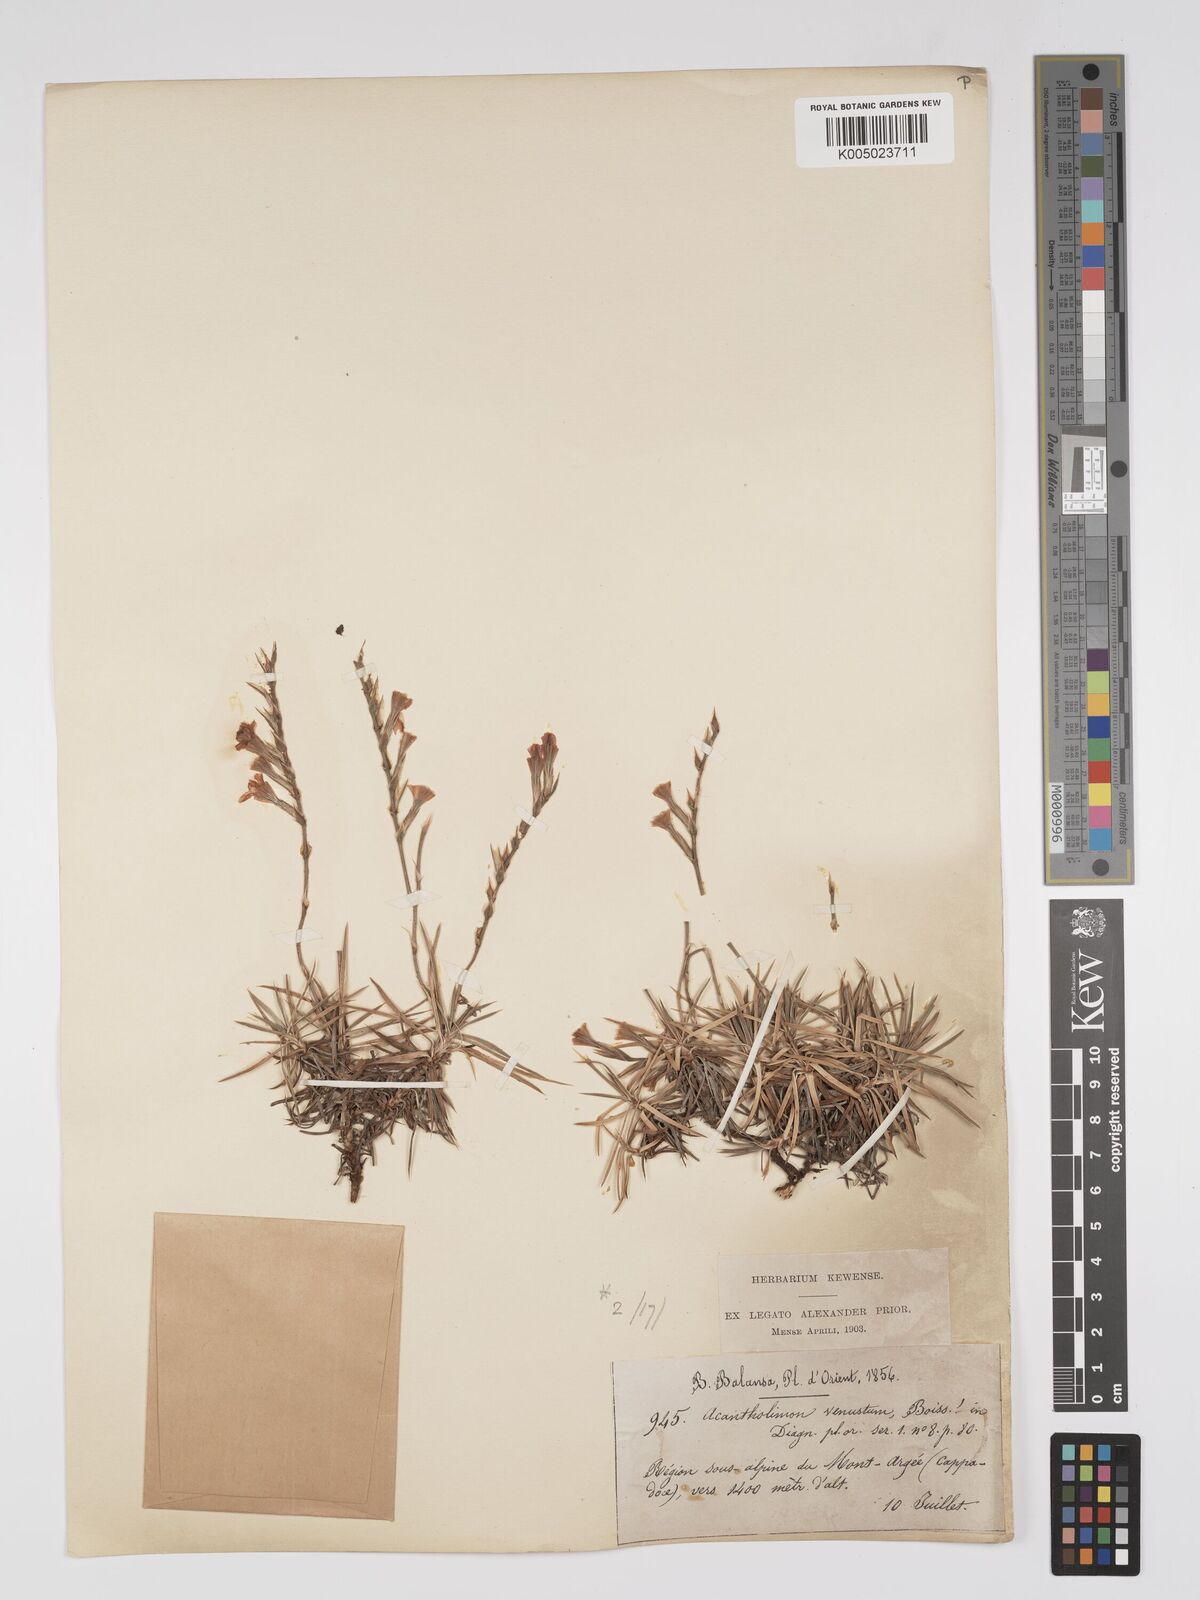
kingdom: Plantae
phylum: Tracheophyta
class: Magnoliopsida
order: Caryophyllales
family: Plumbaginaceae
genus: Acantholimon
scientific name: Acantholimon venustum
